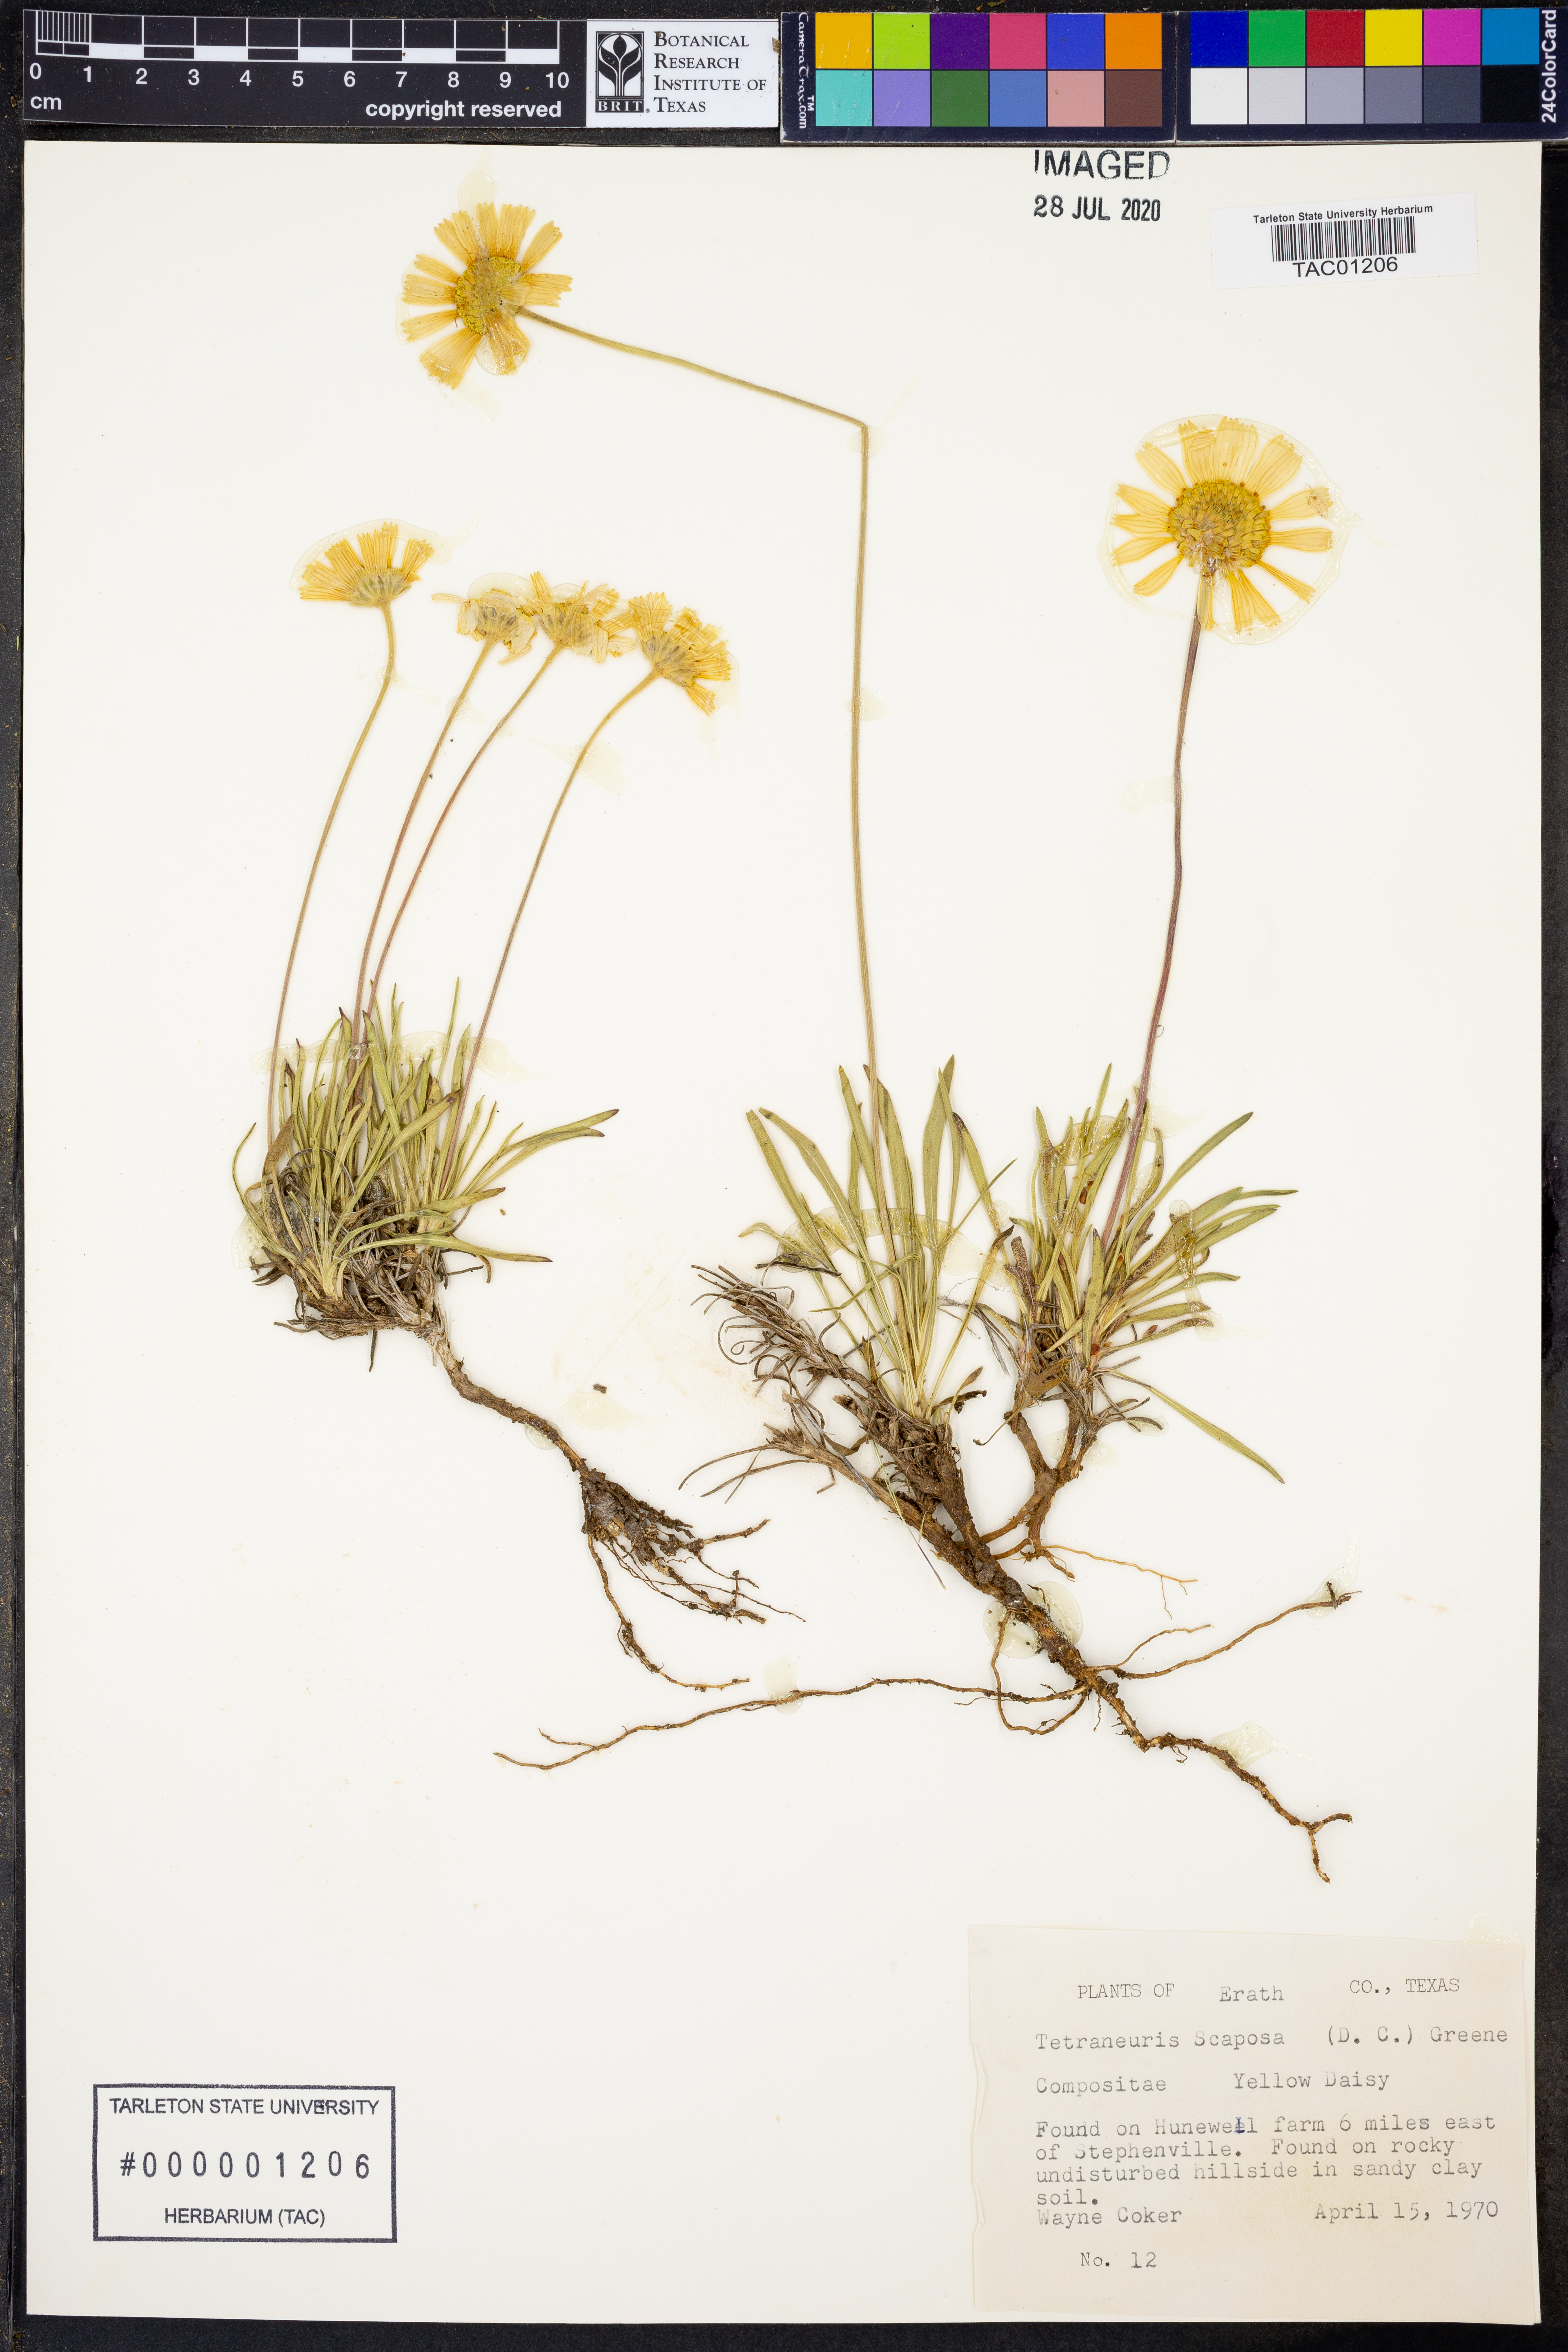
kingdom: Plantae
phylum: Tracheophyta
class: Magnoliopsida
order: Asterales
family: Asteraceae
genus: Tetraneuris
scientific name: Tetraneuris scaposa
